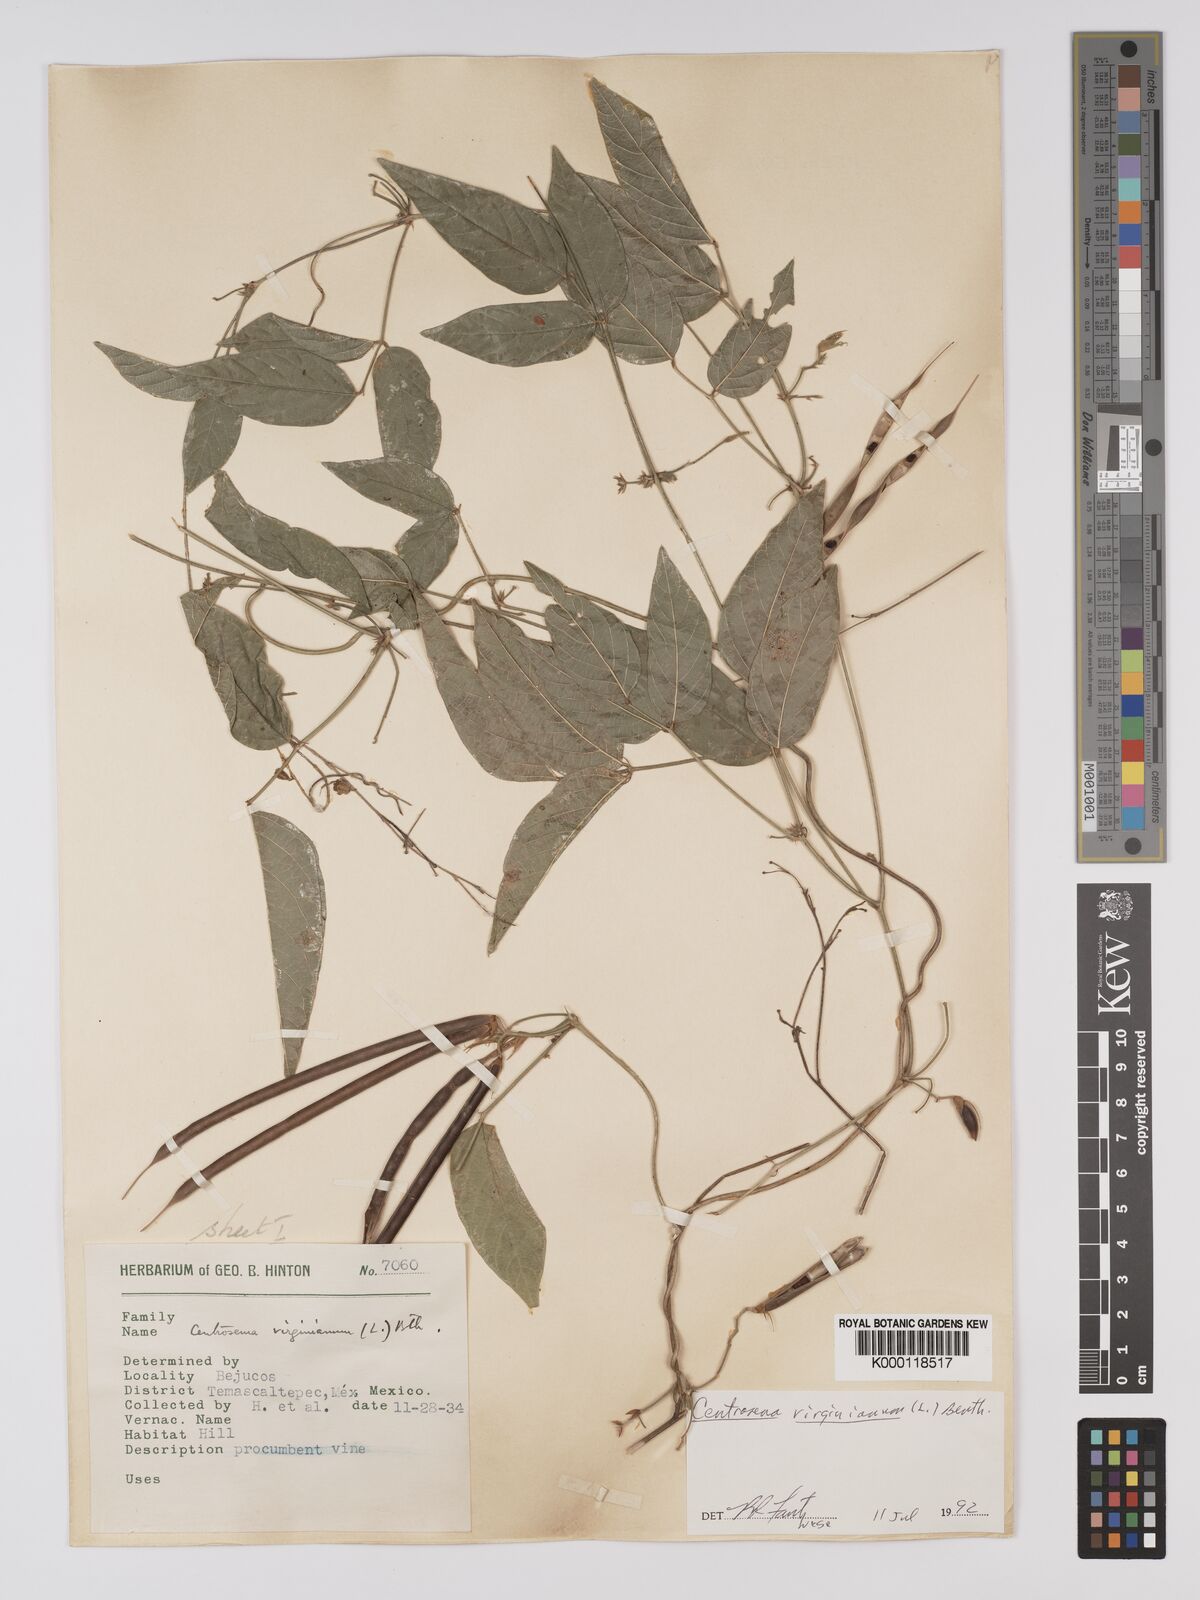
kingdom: Plantae
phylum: Tracheophyta
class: Magnoliopsida
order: Fabales
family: Fabaceae
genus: Centrosema
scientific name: Centrosema virginianum
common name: Butterfly-pea
